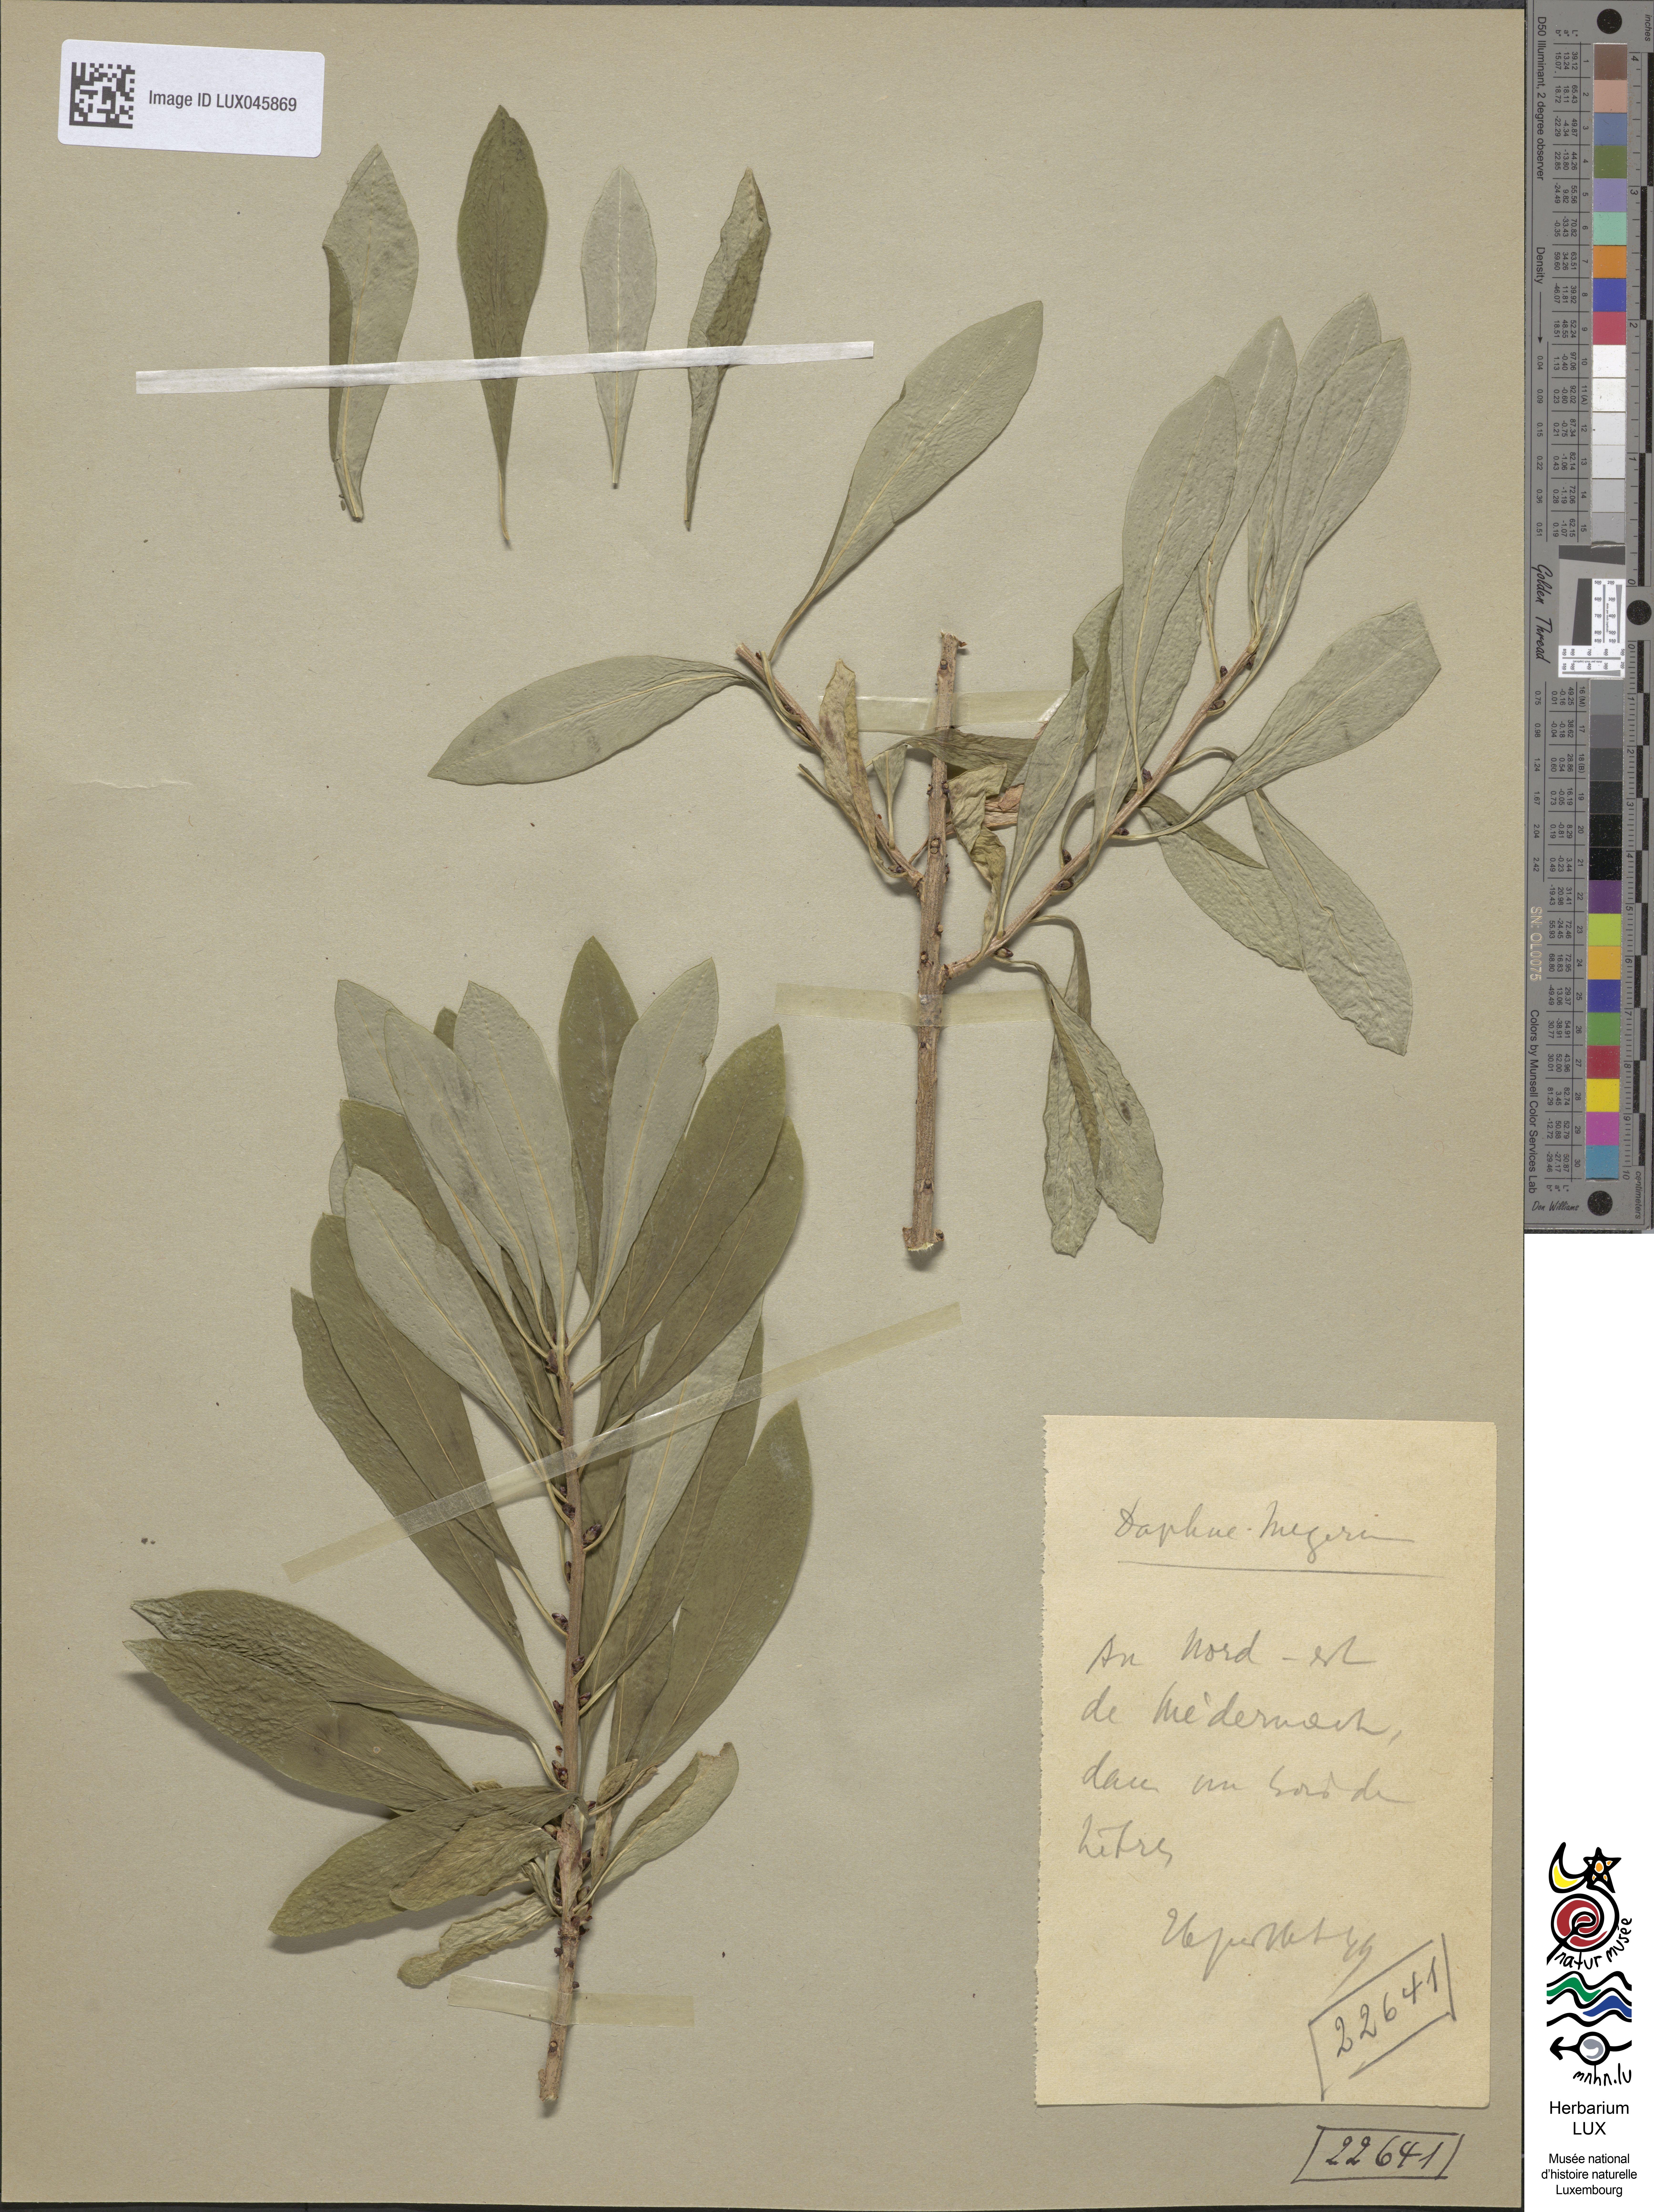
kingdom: Plantae
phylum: Tracheophyta
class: Magnoliopsida
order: Malvales
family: Thymelaeaceae
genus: Daphne
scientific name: Daphne mezereum
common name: Mezereon
